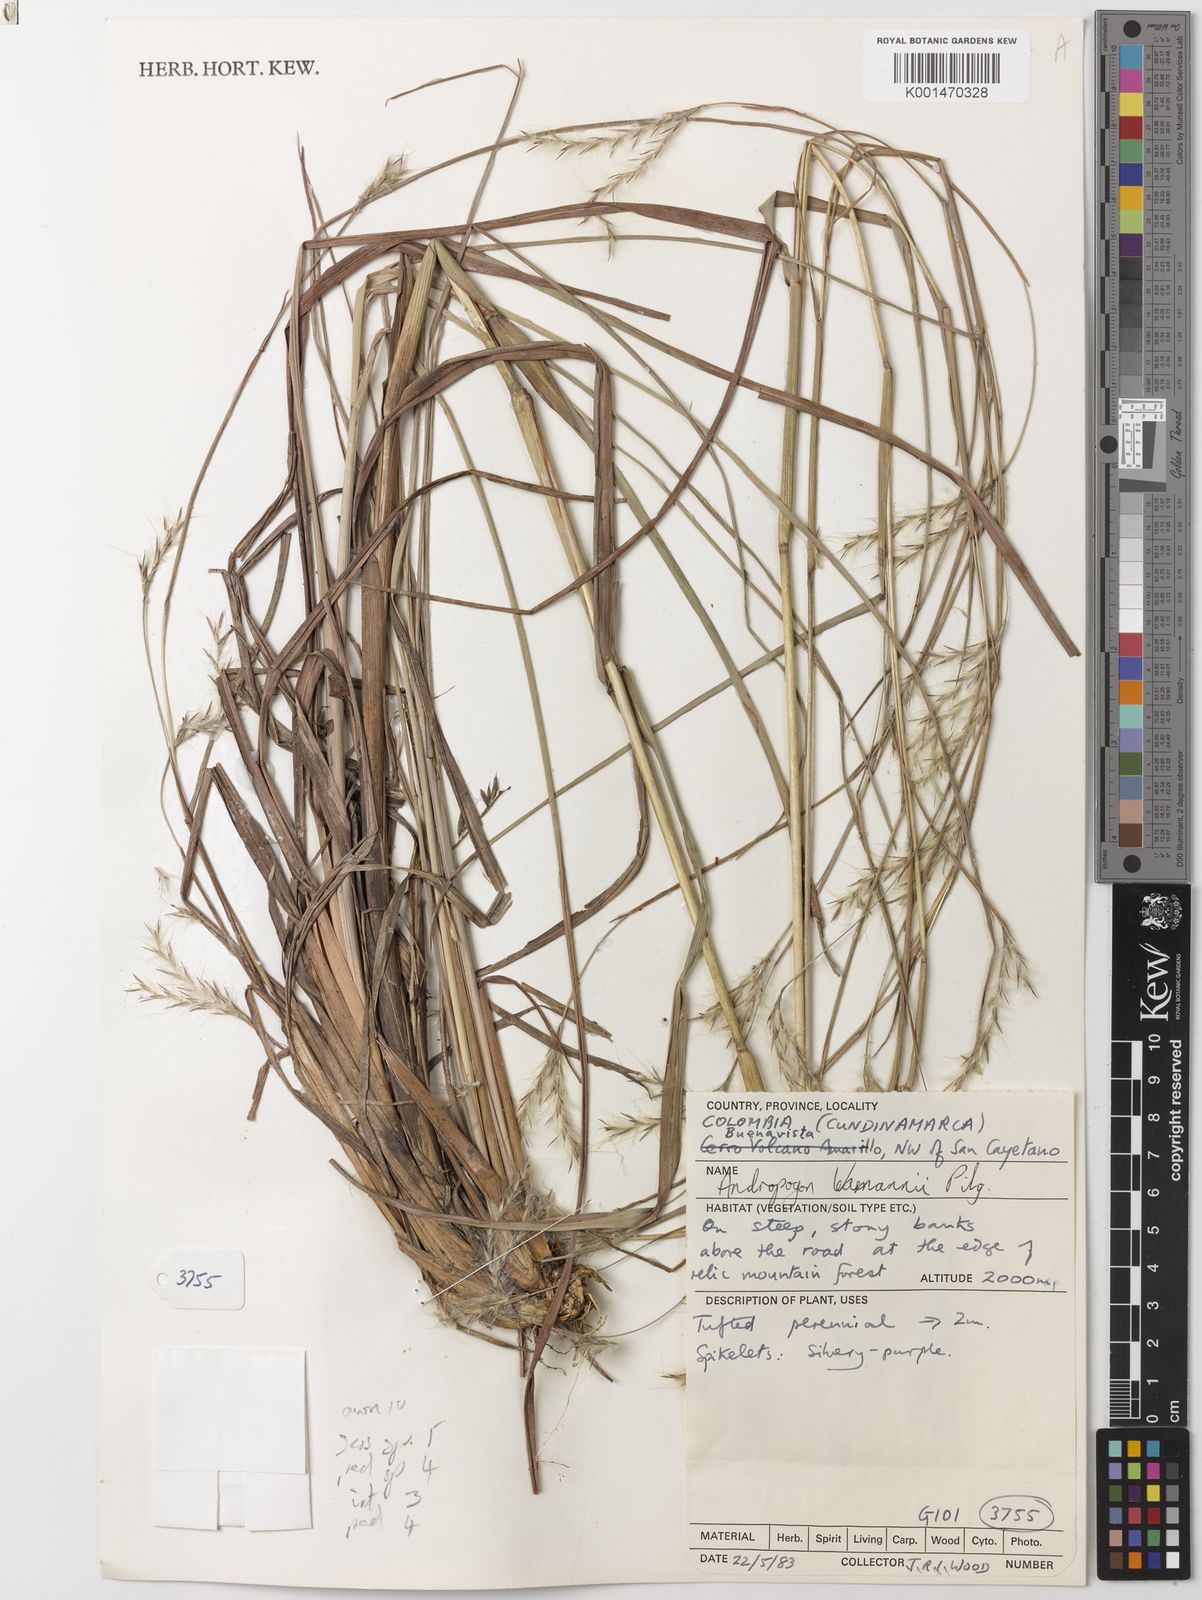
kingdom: Plantae
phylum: Tracheophyta
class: Liliopsida
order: Poales
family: Poaceae
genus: Andropogon
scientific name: Andropogon lehmannii
